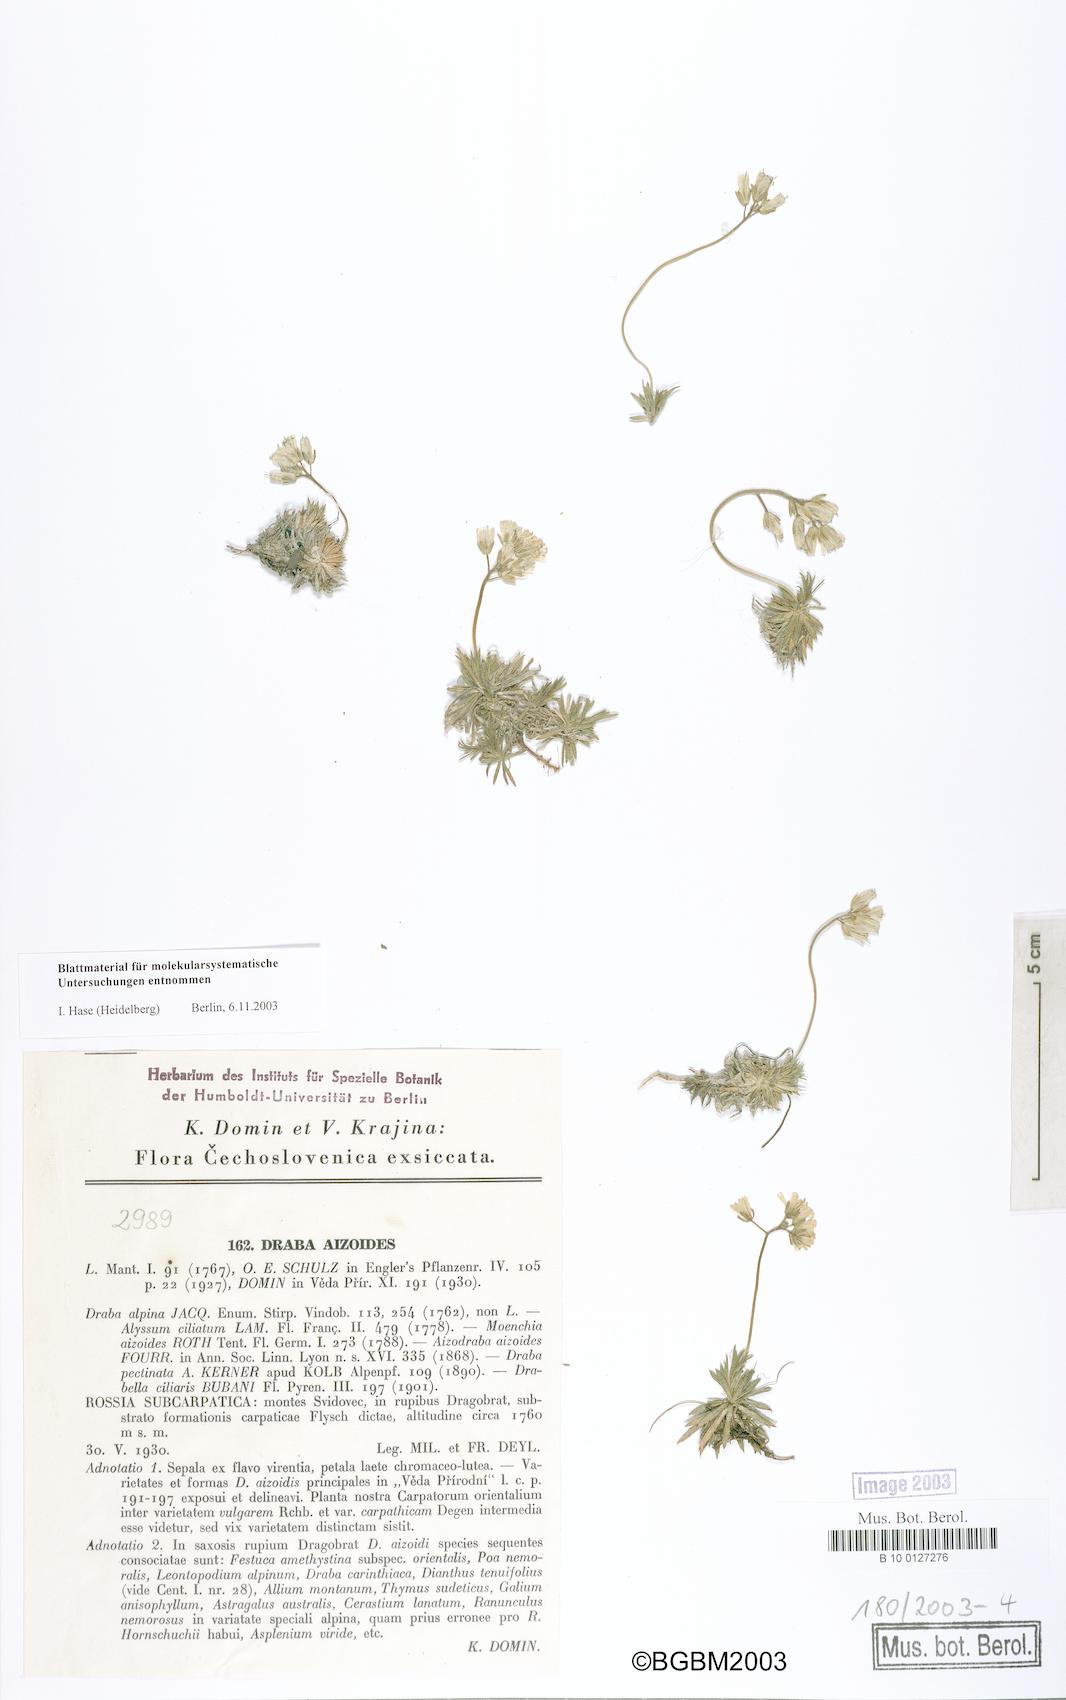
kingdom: Plantae
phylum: Tracheophyta
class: Magnoliopsida
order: Brassicales
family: Brassicaceae
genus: Draba
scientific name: Draba aizoides
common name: Yellow whitlowgrass
